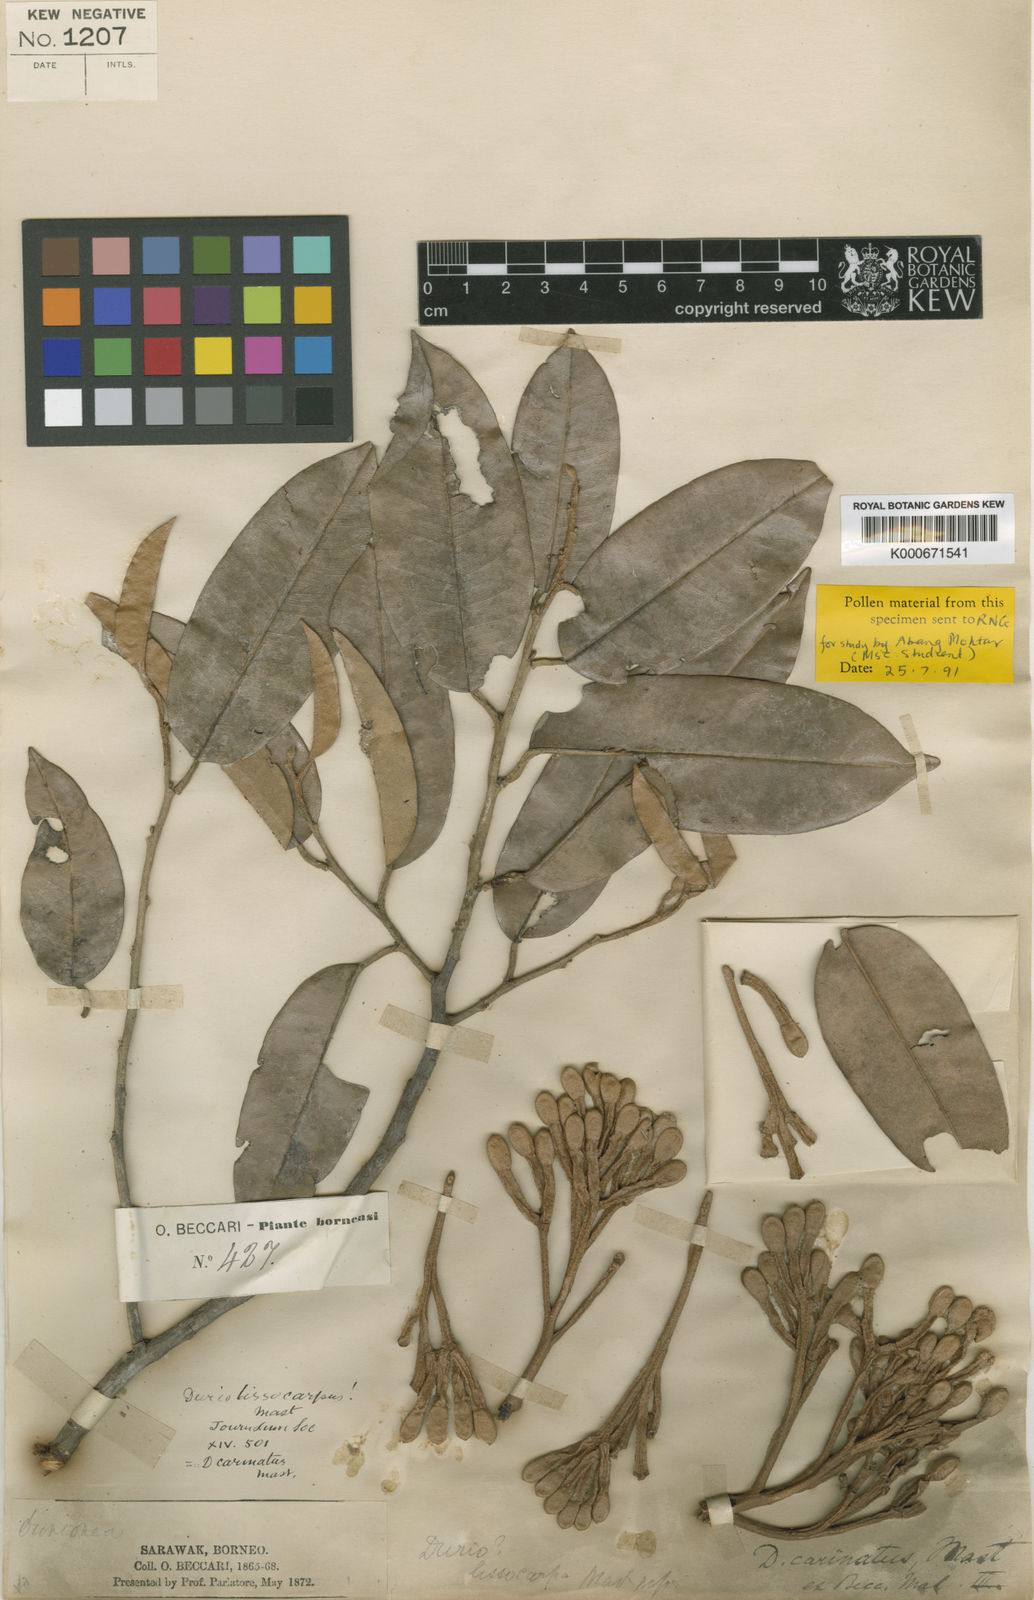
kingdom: Plantae
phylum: Tracheophyta
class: Magnoliopsida
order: Malvales
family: Malvaceae
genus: Durio
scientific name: Durio lissocarpus
